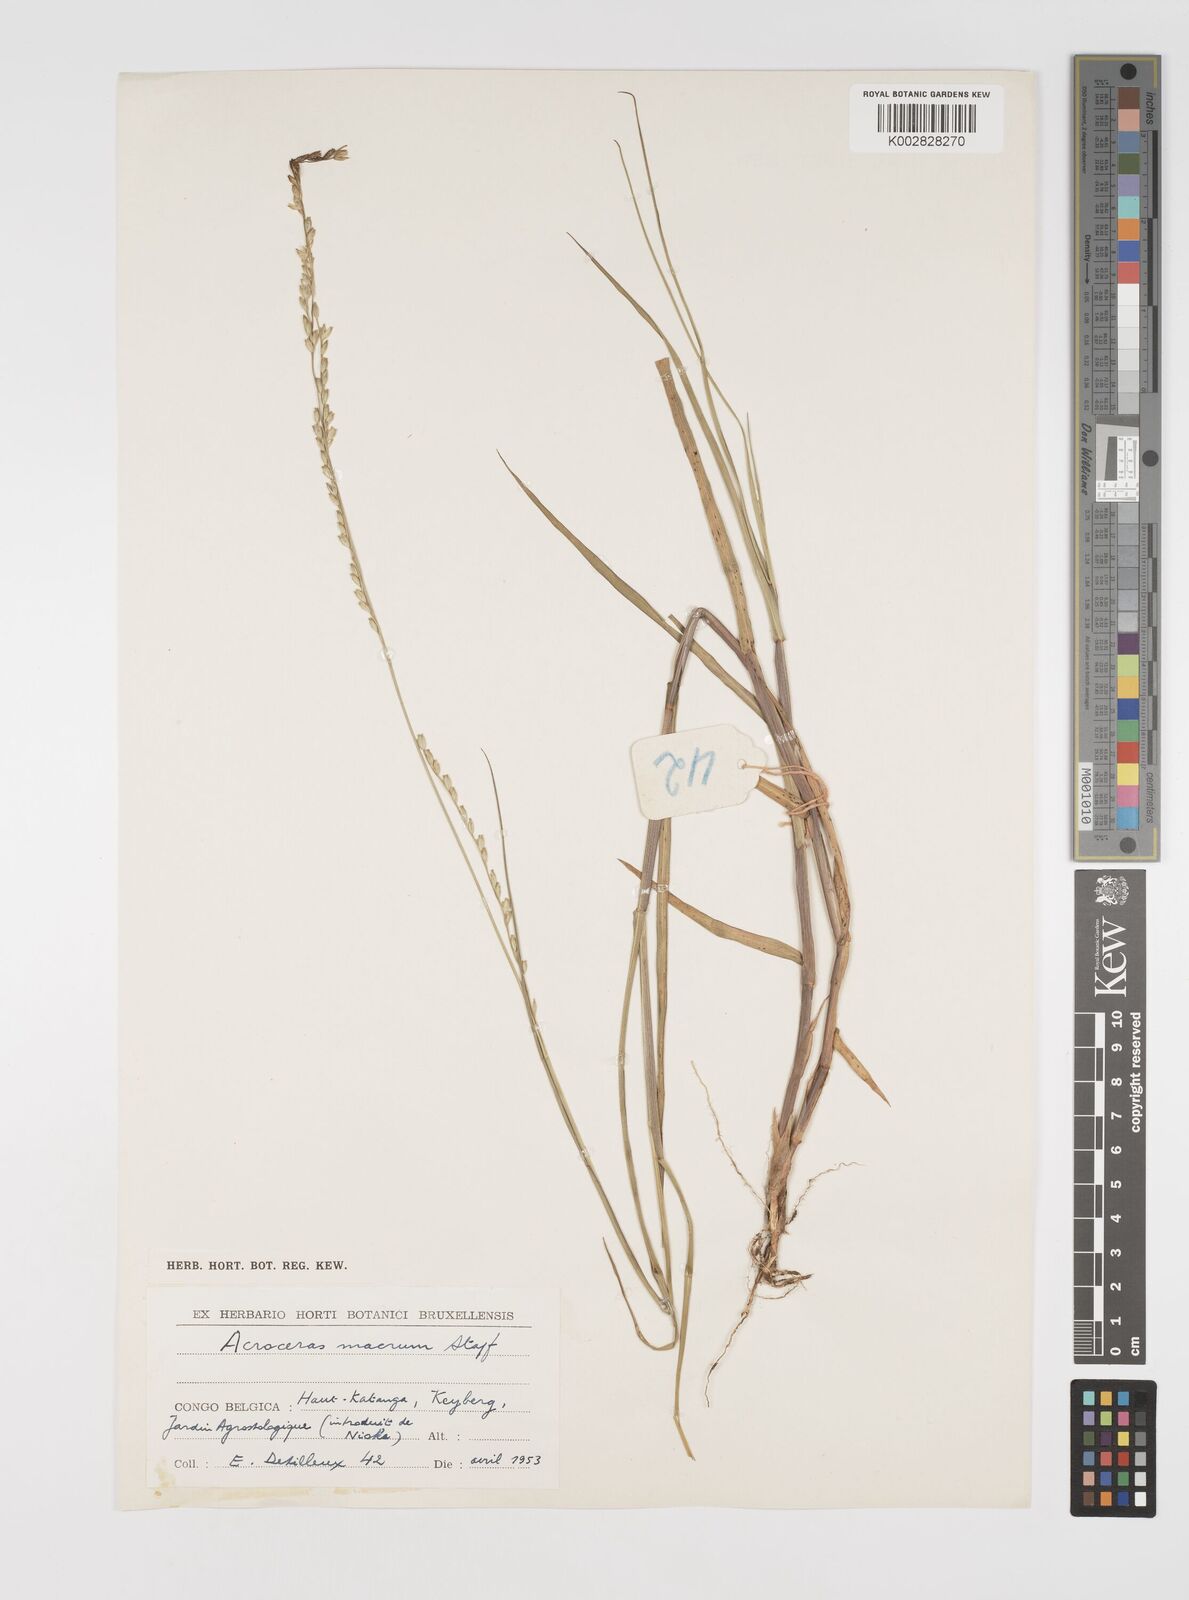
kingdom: Plantae
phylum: Tracheophyta
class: Liliopsida
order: Poales
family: Poaceae
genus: Acroceras
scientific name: Acroceras macrum
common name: Nyl grass
